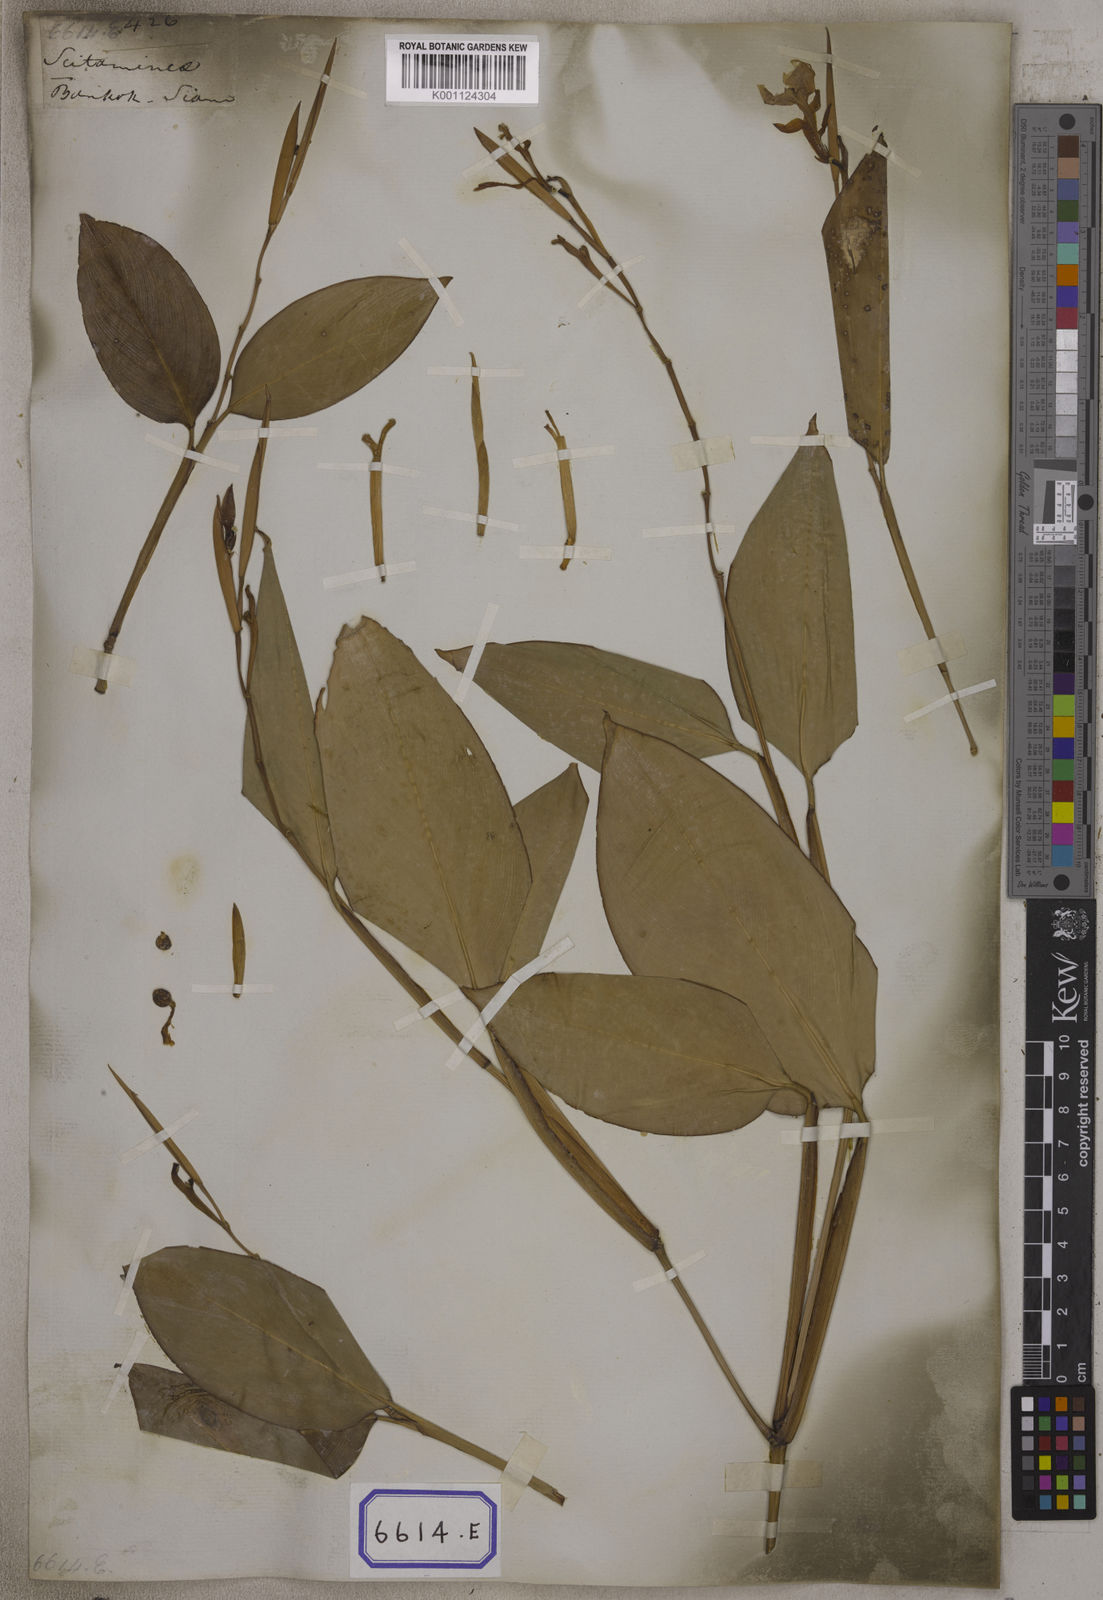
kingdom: Plantae
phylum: Tracheophyta
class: Liliopsida
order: Zingiberales
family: Marantaceae
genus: Maranta
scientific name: Maranta
